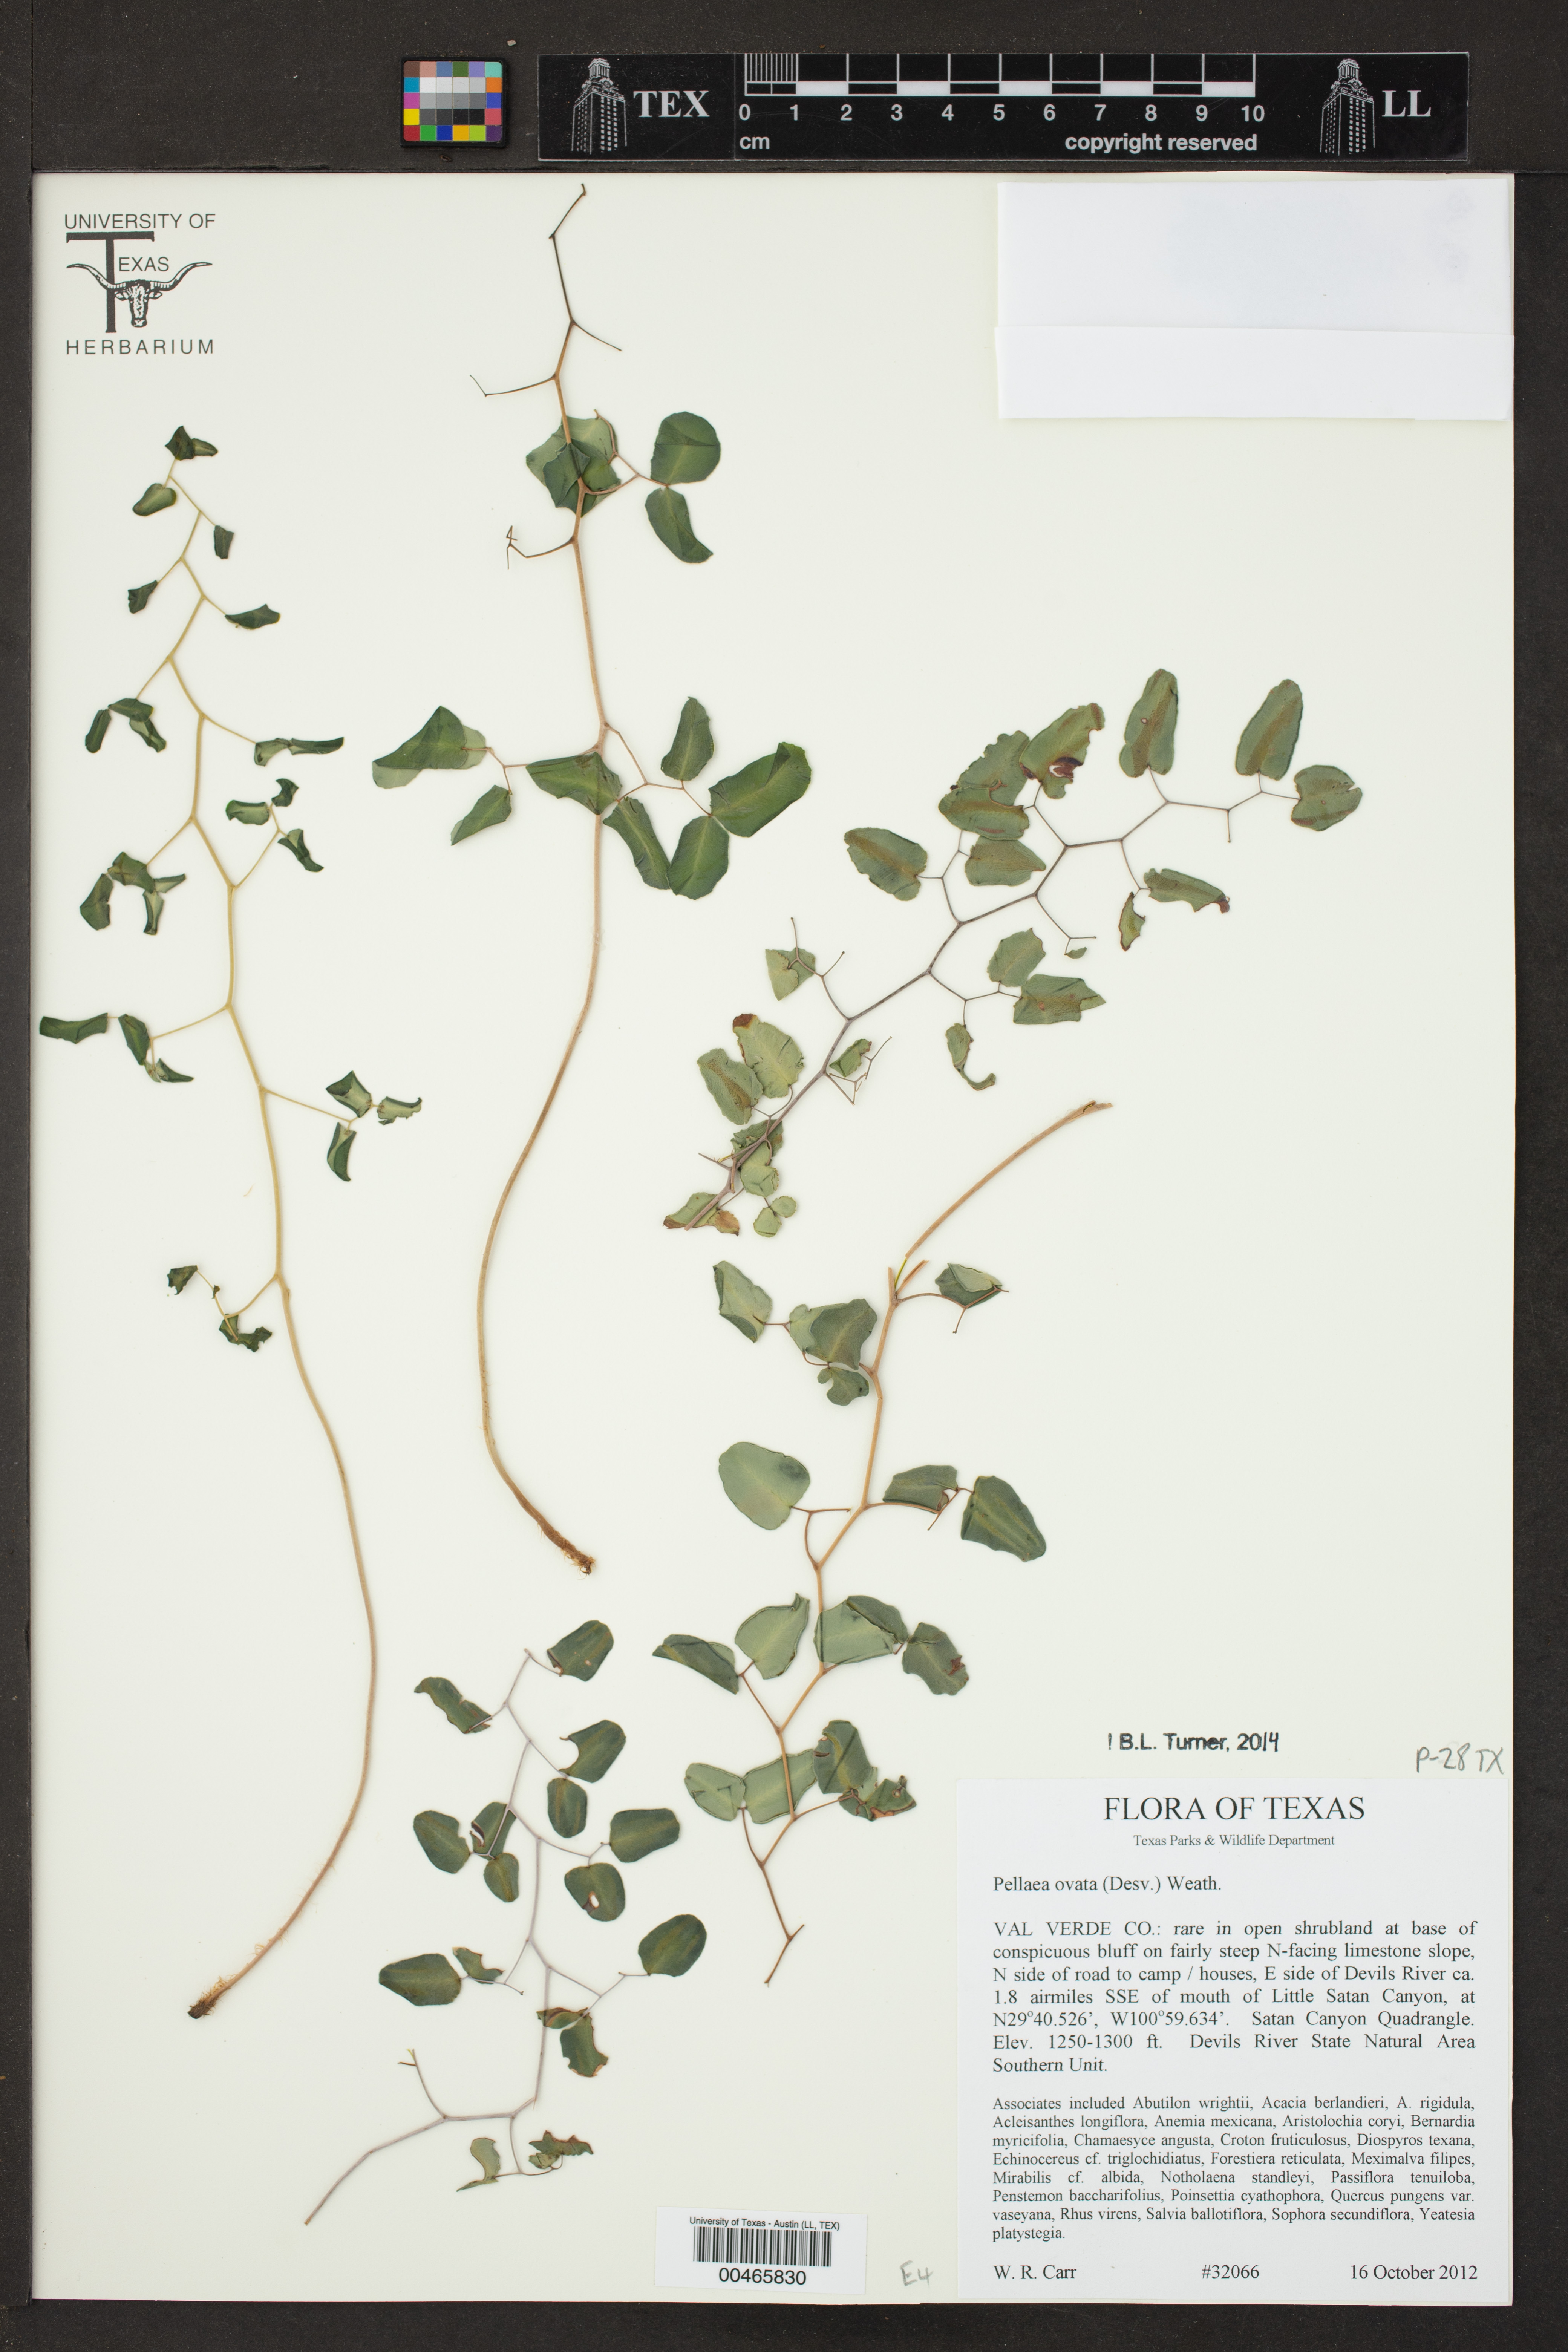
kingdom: Plantae
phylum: Tracheophyta
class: Polypodiopsida
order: Polypodiales
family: Pteridaceae
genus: Pellaea
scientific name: Pellaea ovata
